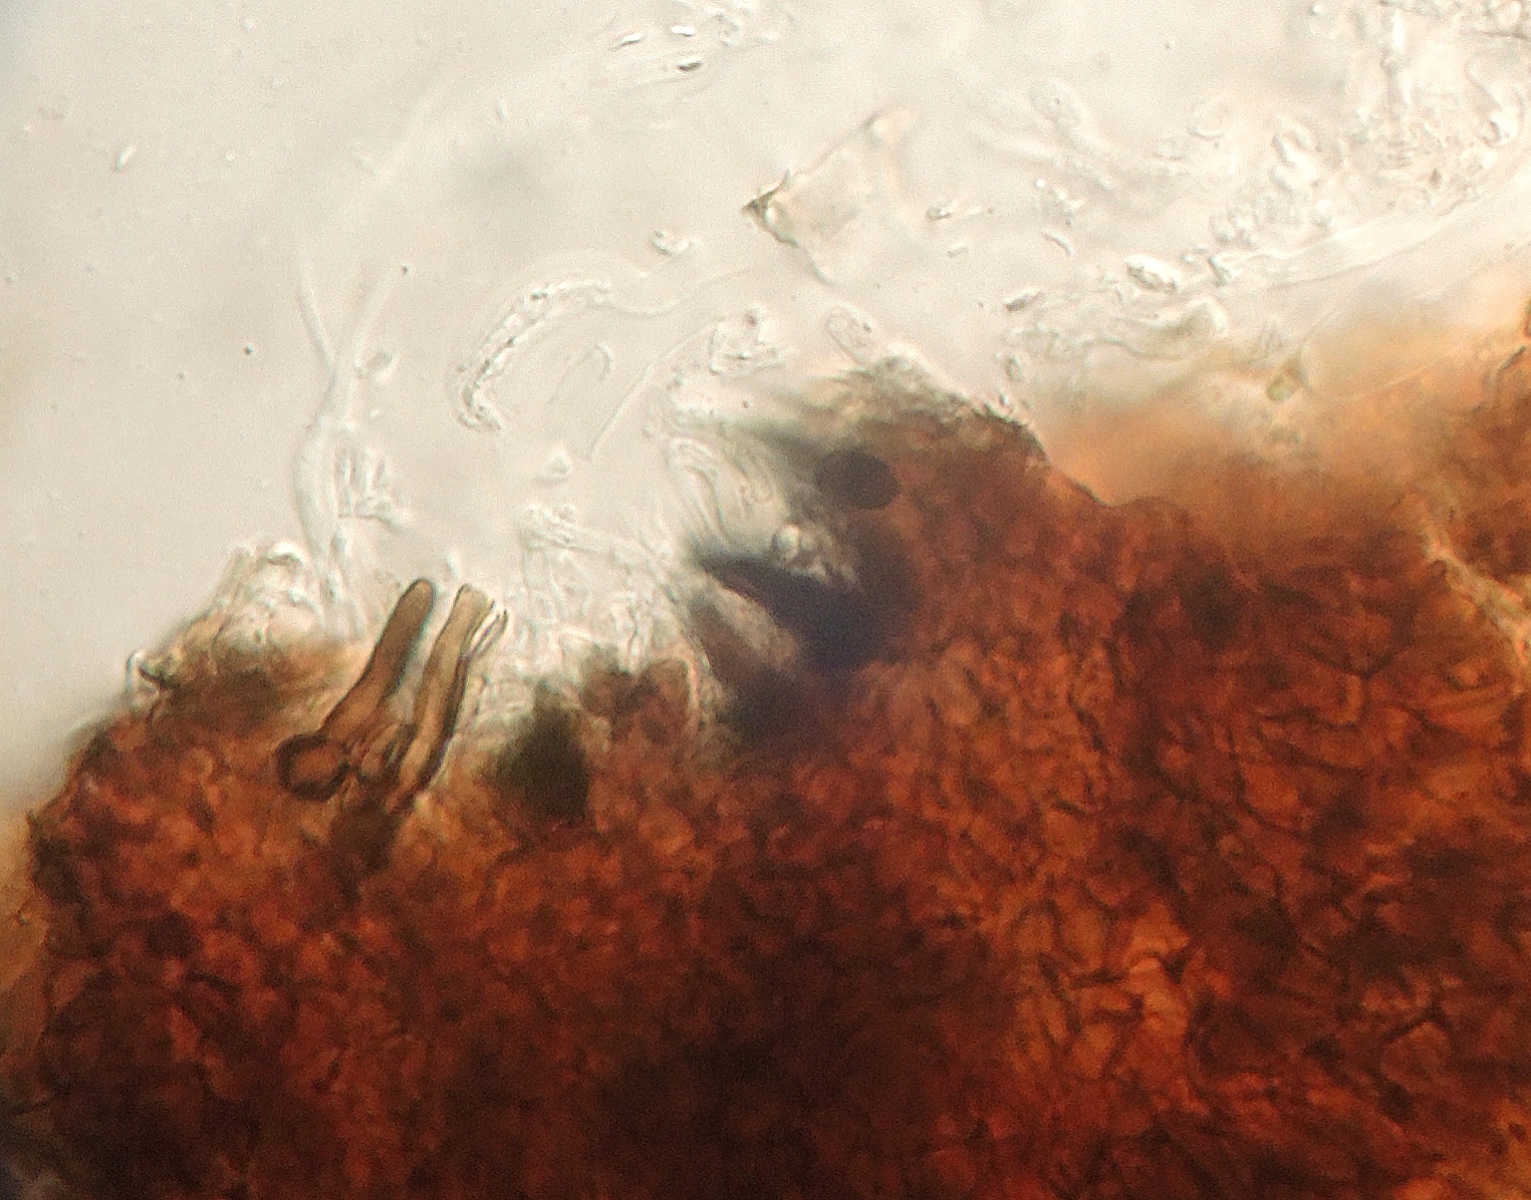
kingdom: Fungi
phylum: Ascomycota
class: Dothideomycetes
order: Pleosporales
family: Lophiostomataceae
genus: Trichometasphaeria
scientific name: Trichometasphaeria fusispora
